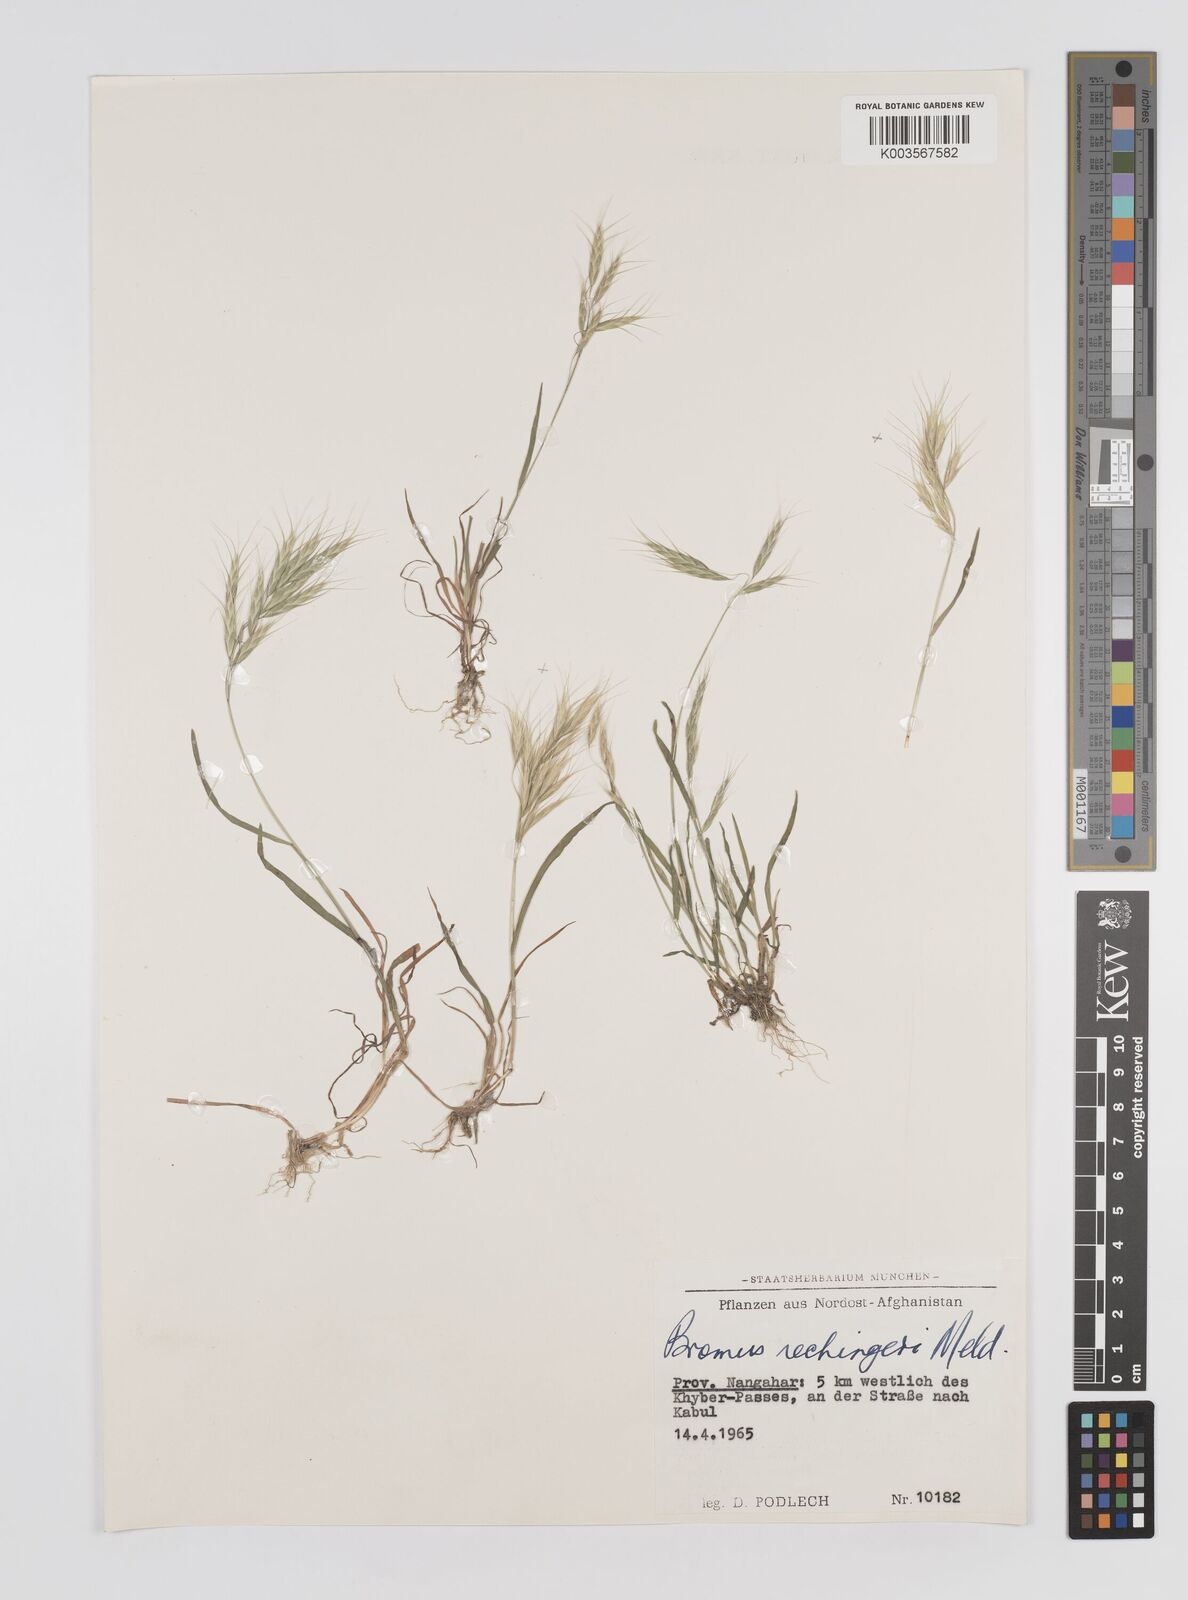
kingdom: Plantae
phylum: Tracheophyta
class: Liliopsida
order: Poales
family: Poaceae
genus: Bromus
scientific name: Bromus pectinatus
